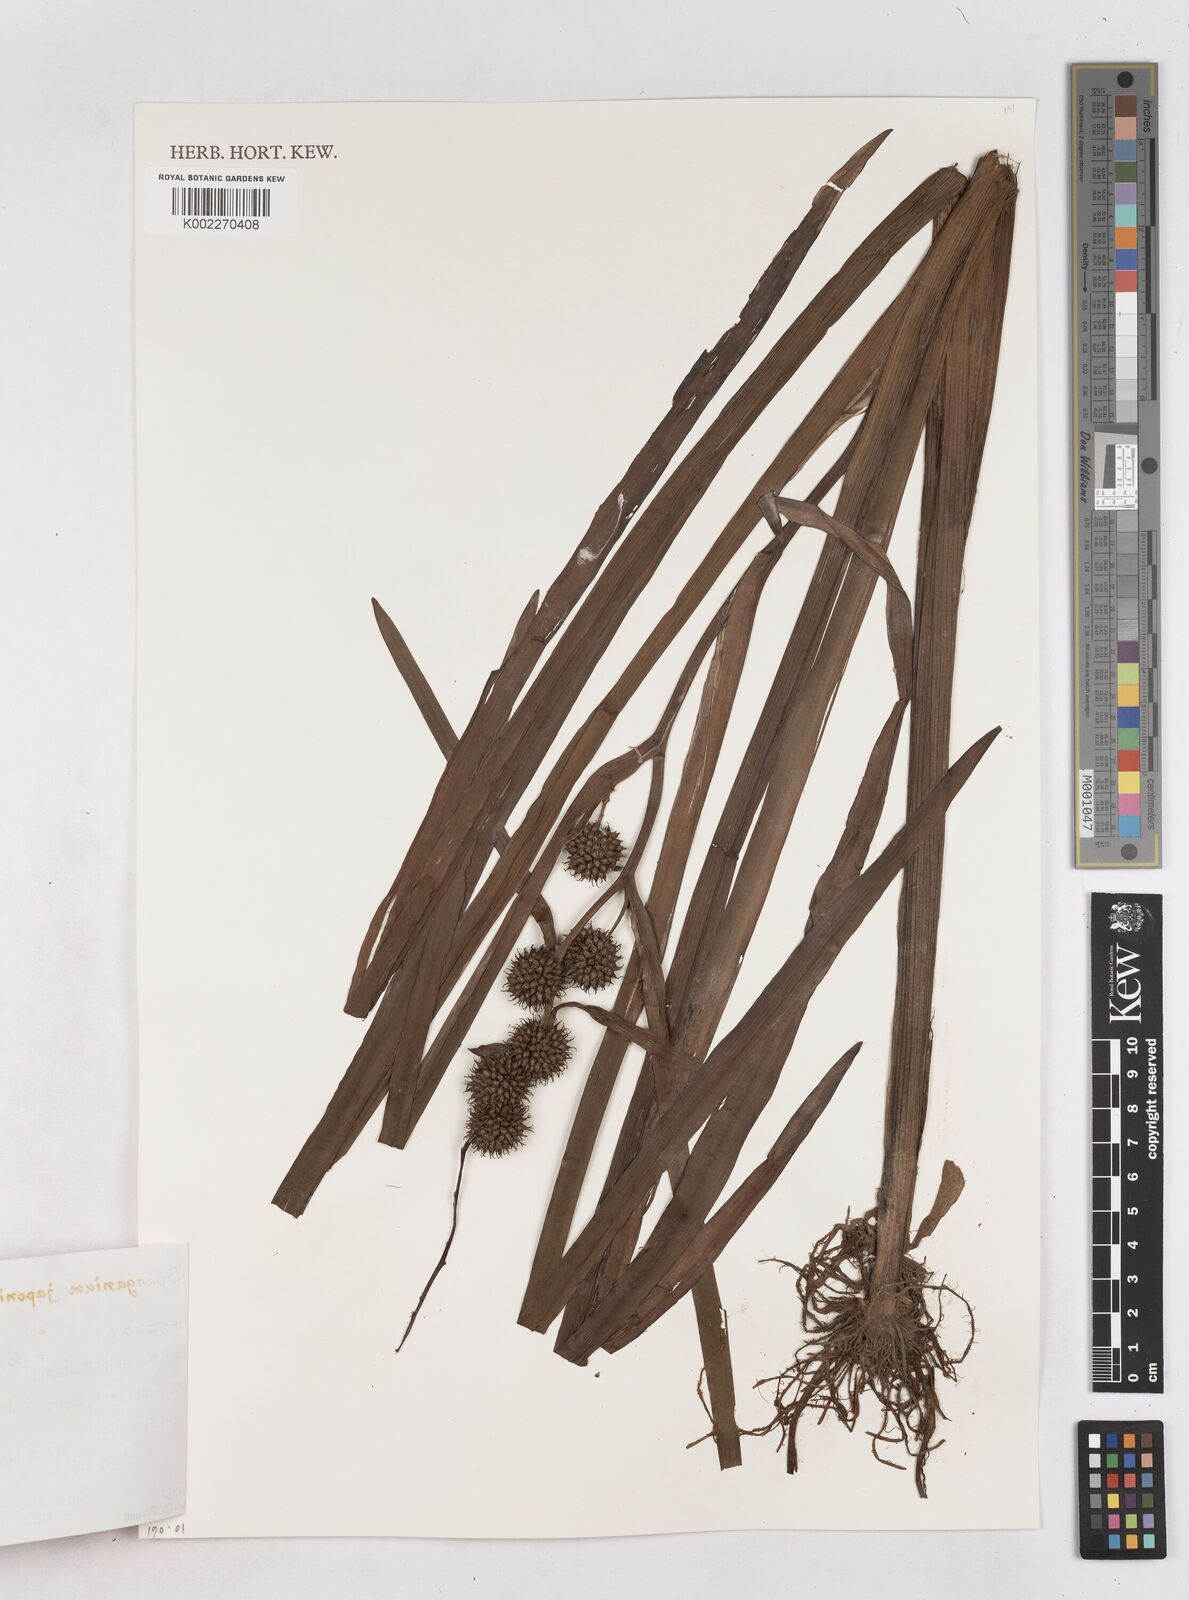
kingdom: Plantae
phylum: Tracheophyta
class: Liliopsida
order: Poales
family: Typhaceae
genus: Sparganium
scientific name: Sparganium japonicum
